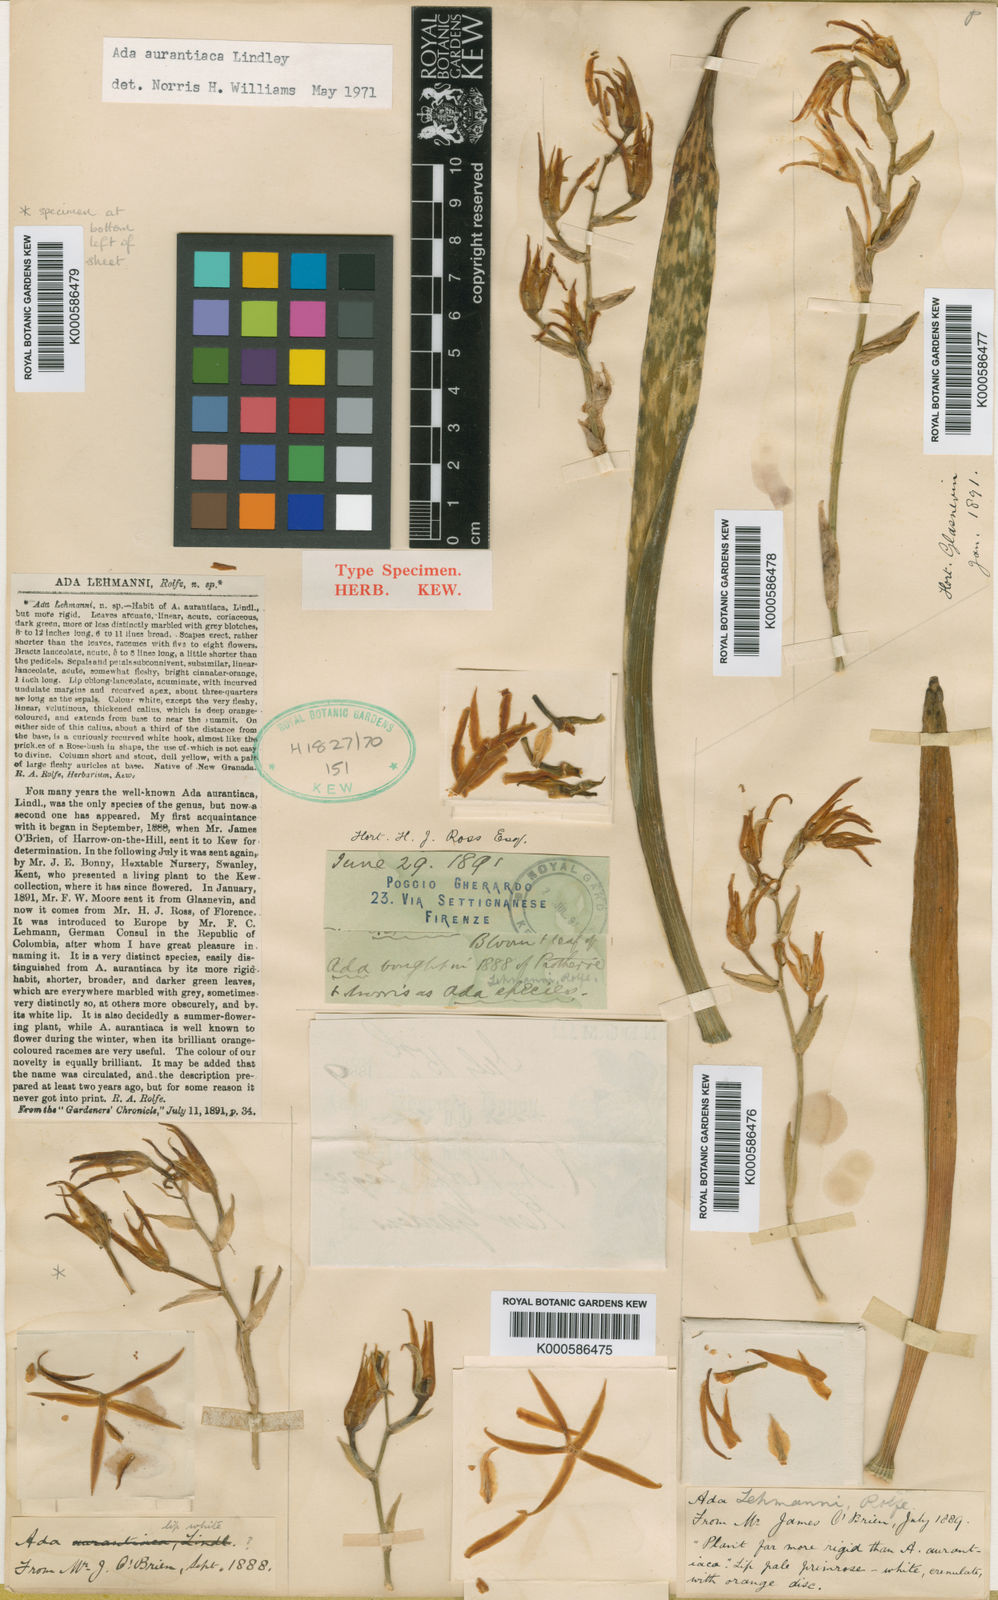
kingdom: Plantae
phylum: Tracheophyta
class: Liliopsida
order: Asparagales
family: Orchidaceae
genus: Brassia
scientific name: Brassia aurantiaca
